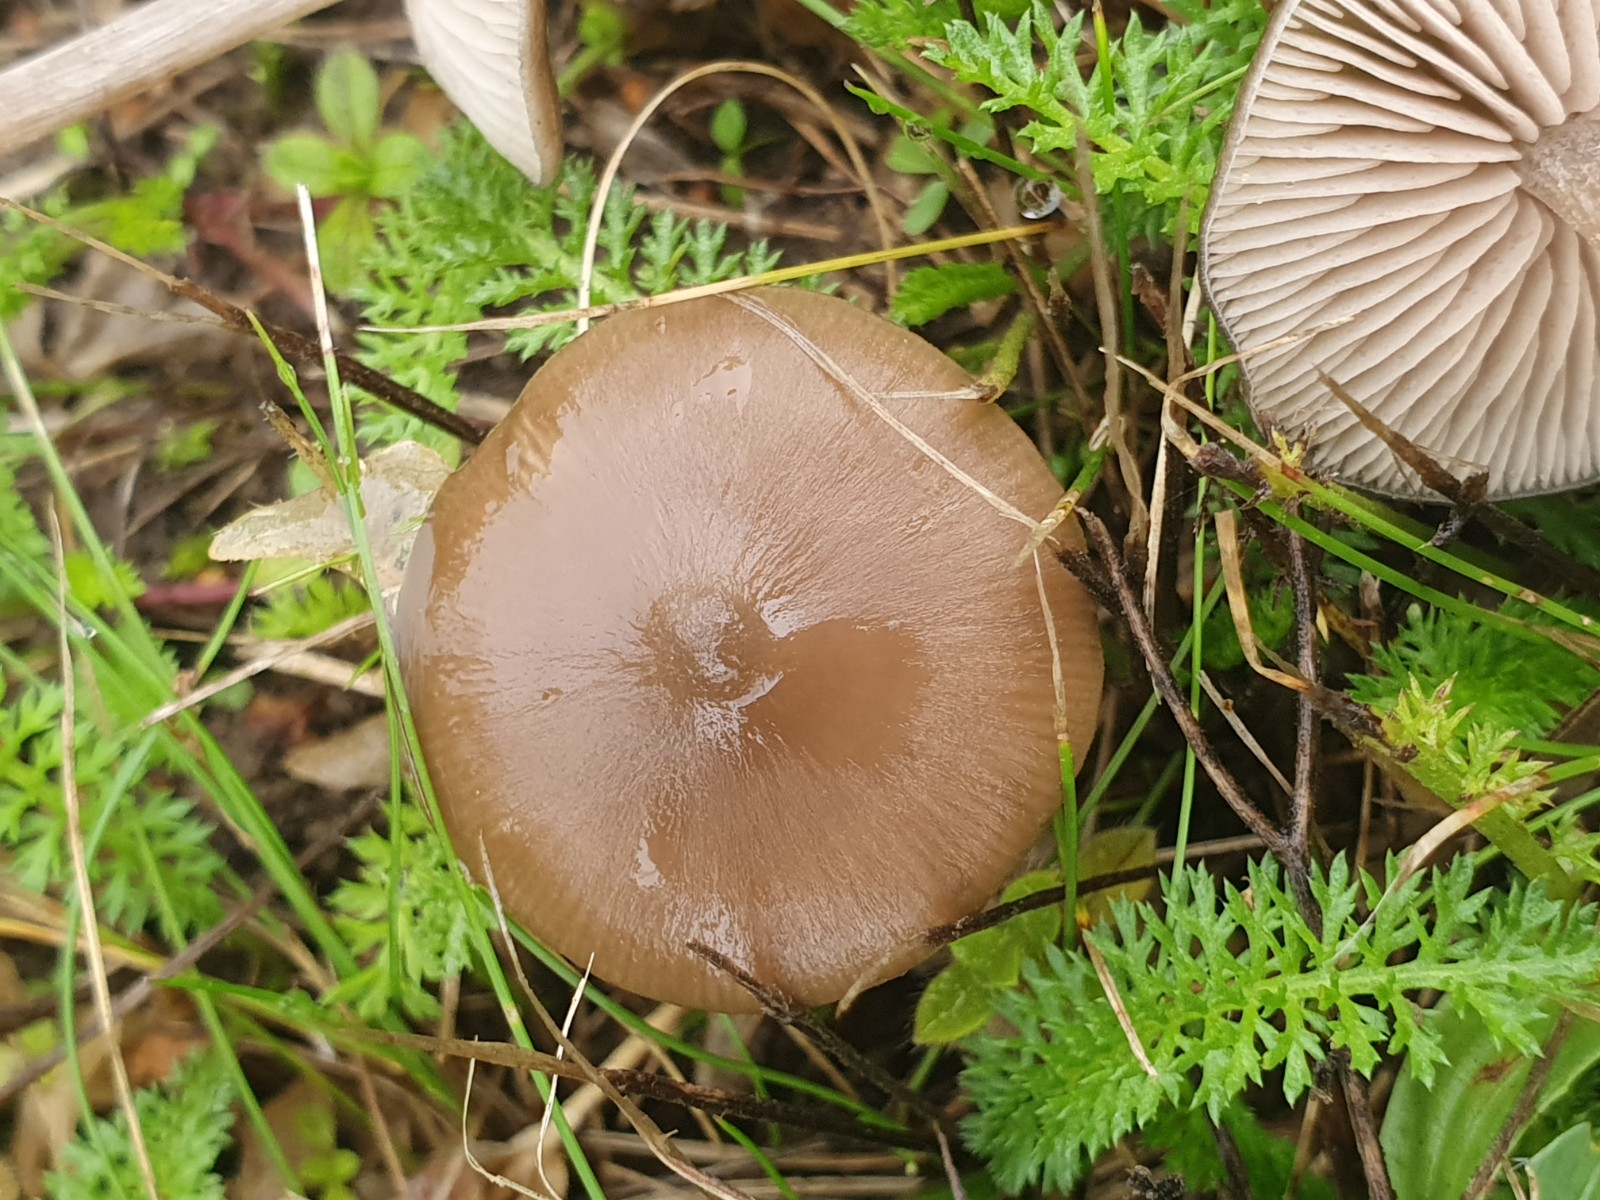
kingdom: Fungi
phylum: Basidiomycota
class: Agaricomycetes
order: Agaricales
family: Entolomataceae
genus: Entoloma
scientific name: Entoloma
